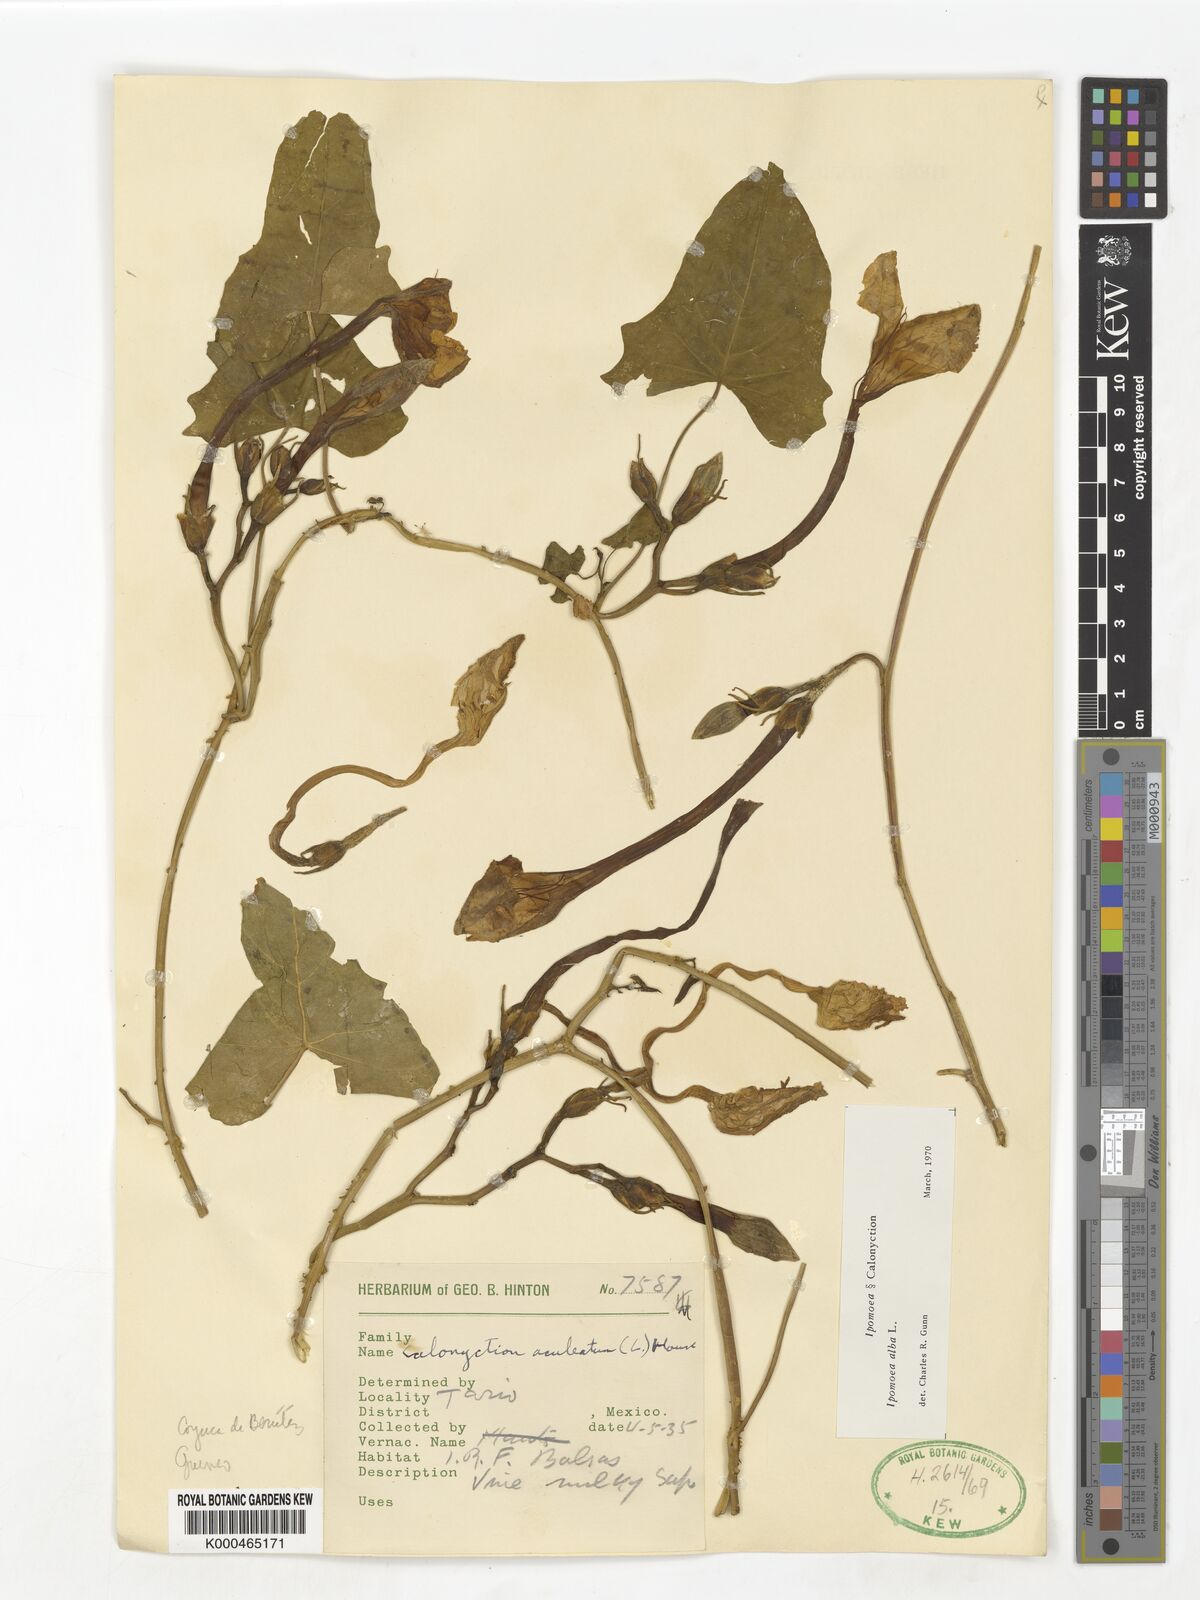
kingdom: Plantae
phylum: Tracheophyta
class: Magnoliopsida
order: Solanales
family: Convolvulaceae
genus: Ipomoea
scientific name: Ipomoea alba
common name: Moonflower
